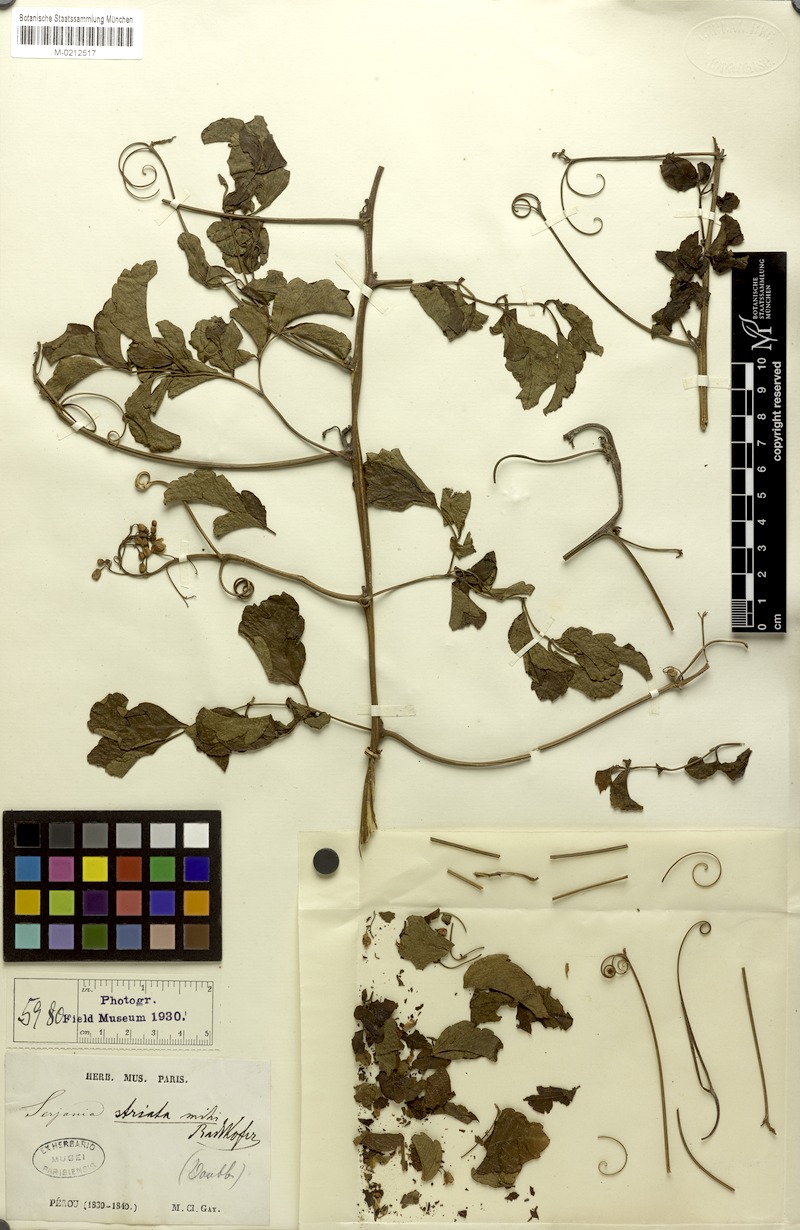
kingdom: Plantae
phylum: Tracheophyta
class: Magnoliopsida
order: Sapindales
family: Sapindaceae
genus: Serjania
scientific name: Serjania striata
